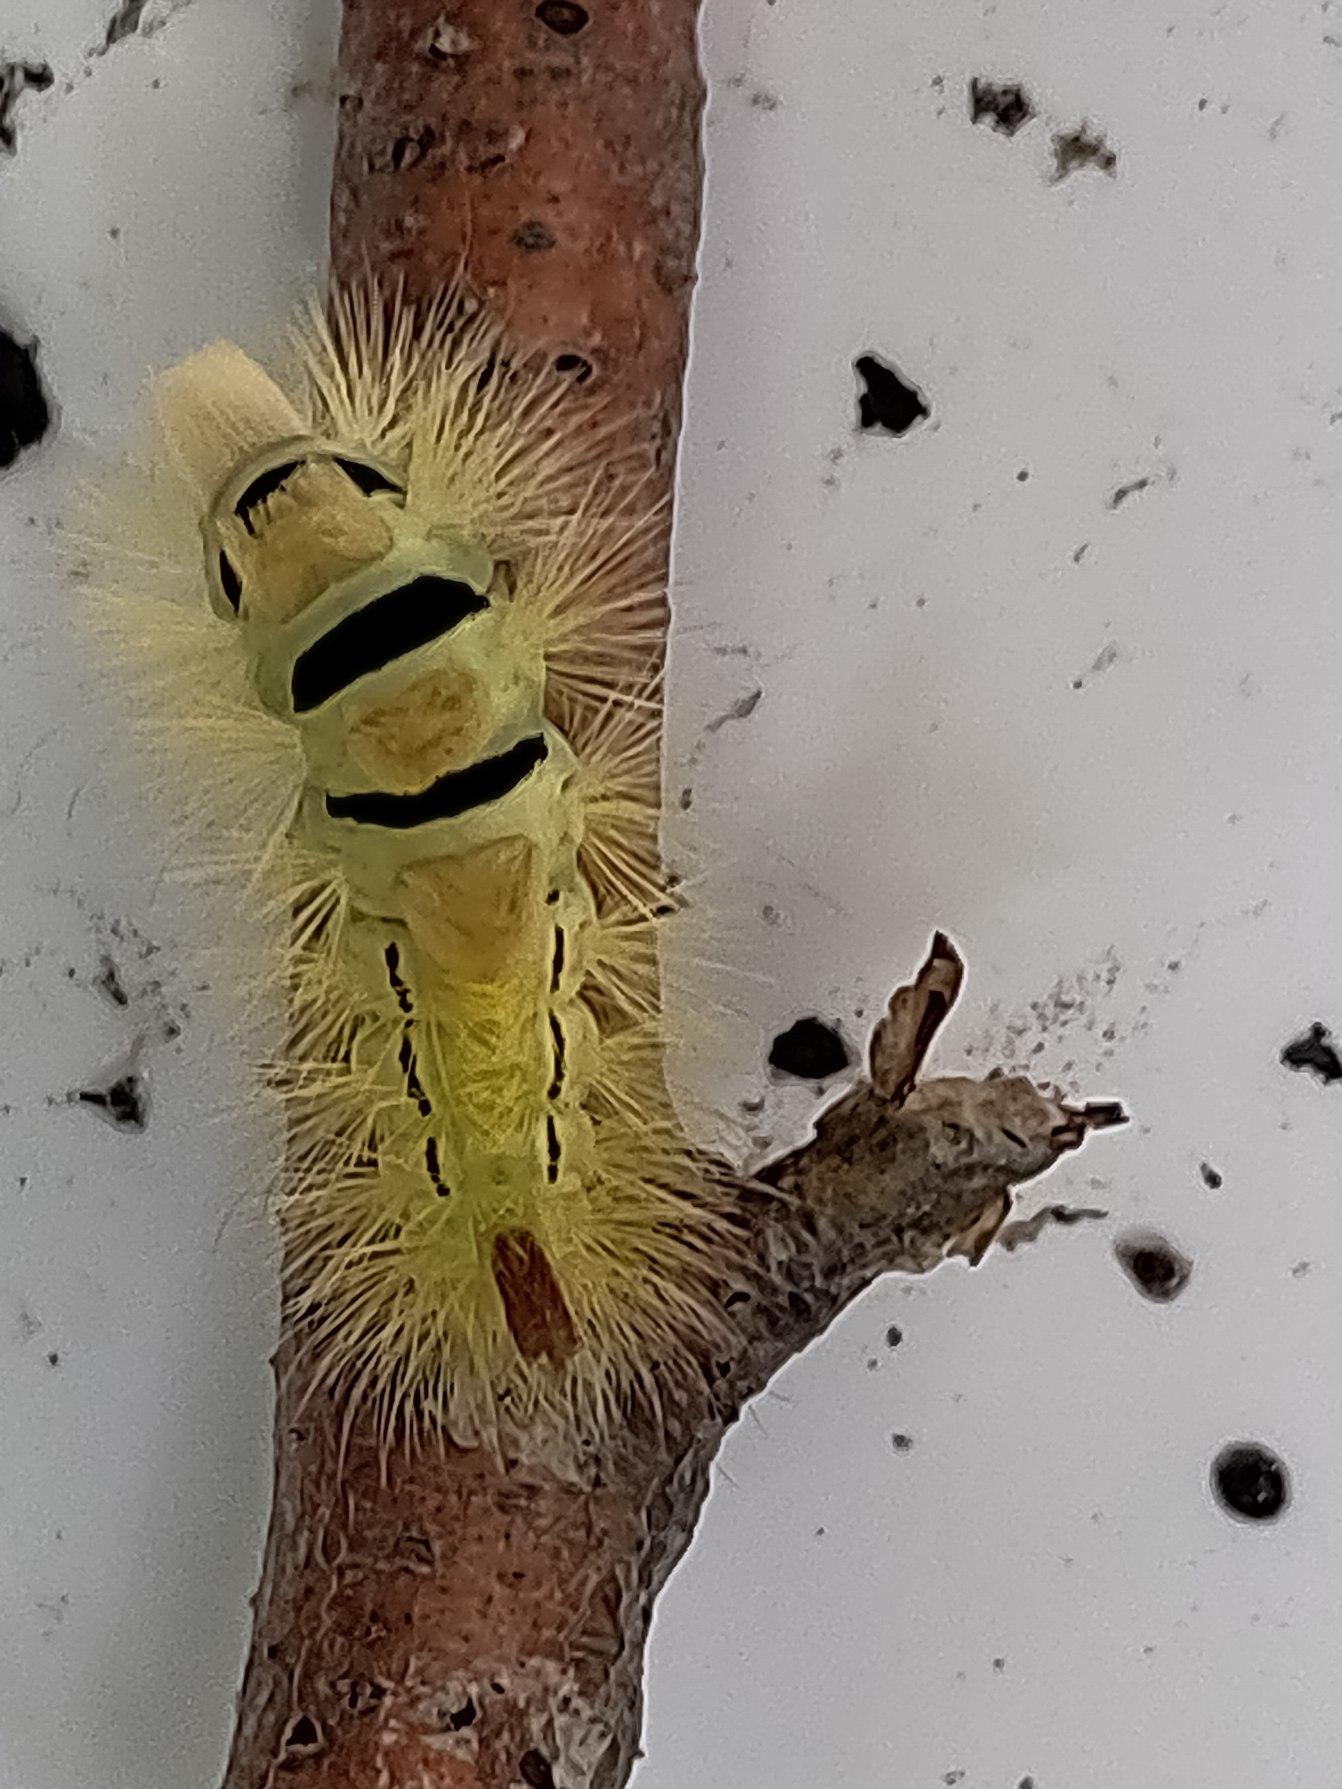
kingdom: Animalia
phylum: Arthropoda
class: Insecta
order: Lepidoptera
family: Erebidae
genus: Calliteara
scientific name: Calliteara pudibunda
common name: Bøgenonne
